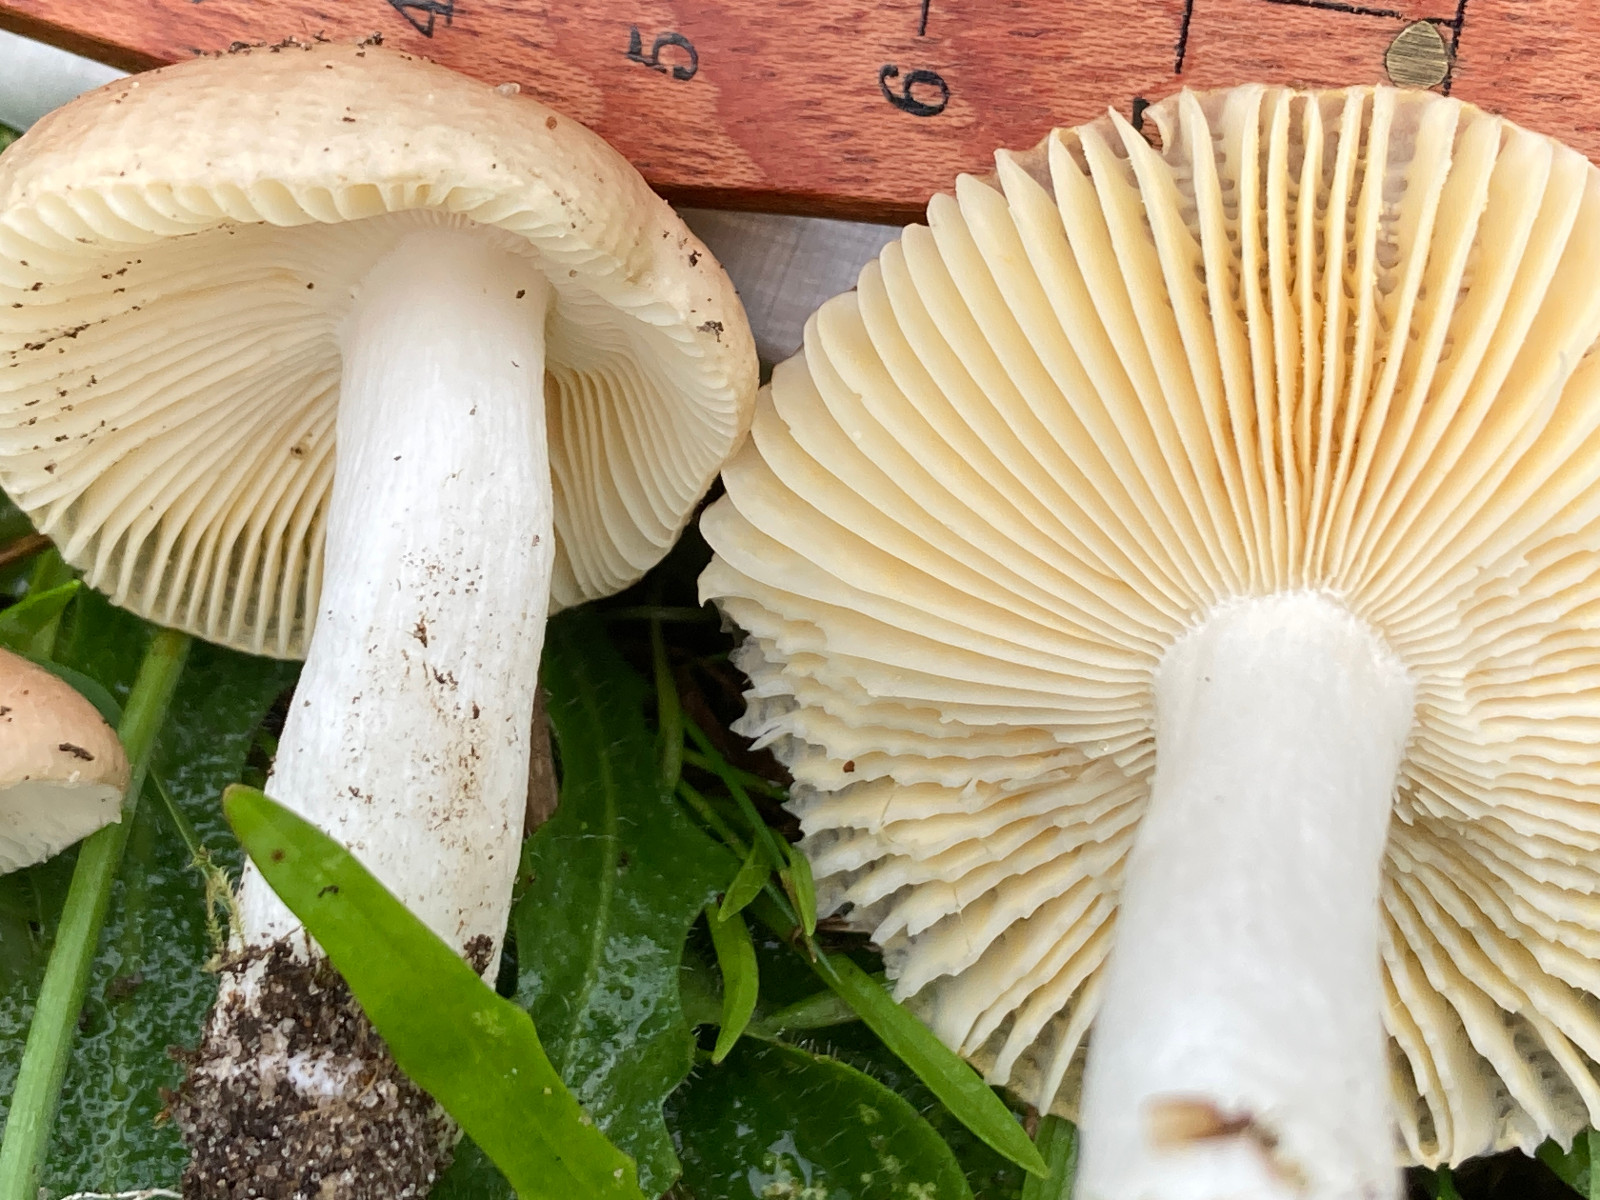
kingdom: Fungi
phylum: Basidiomycota
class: Agaricomycetes
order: Russulales
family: Russulaceae
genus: Russula
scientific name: Russula nauseosa
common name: spinkel skørhat
